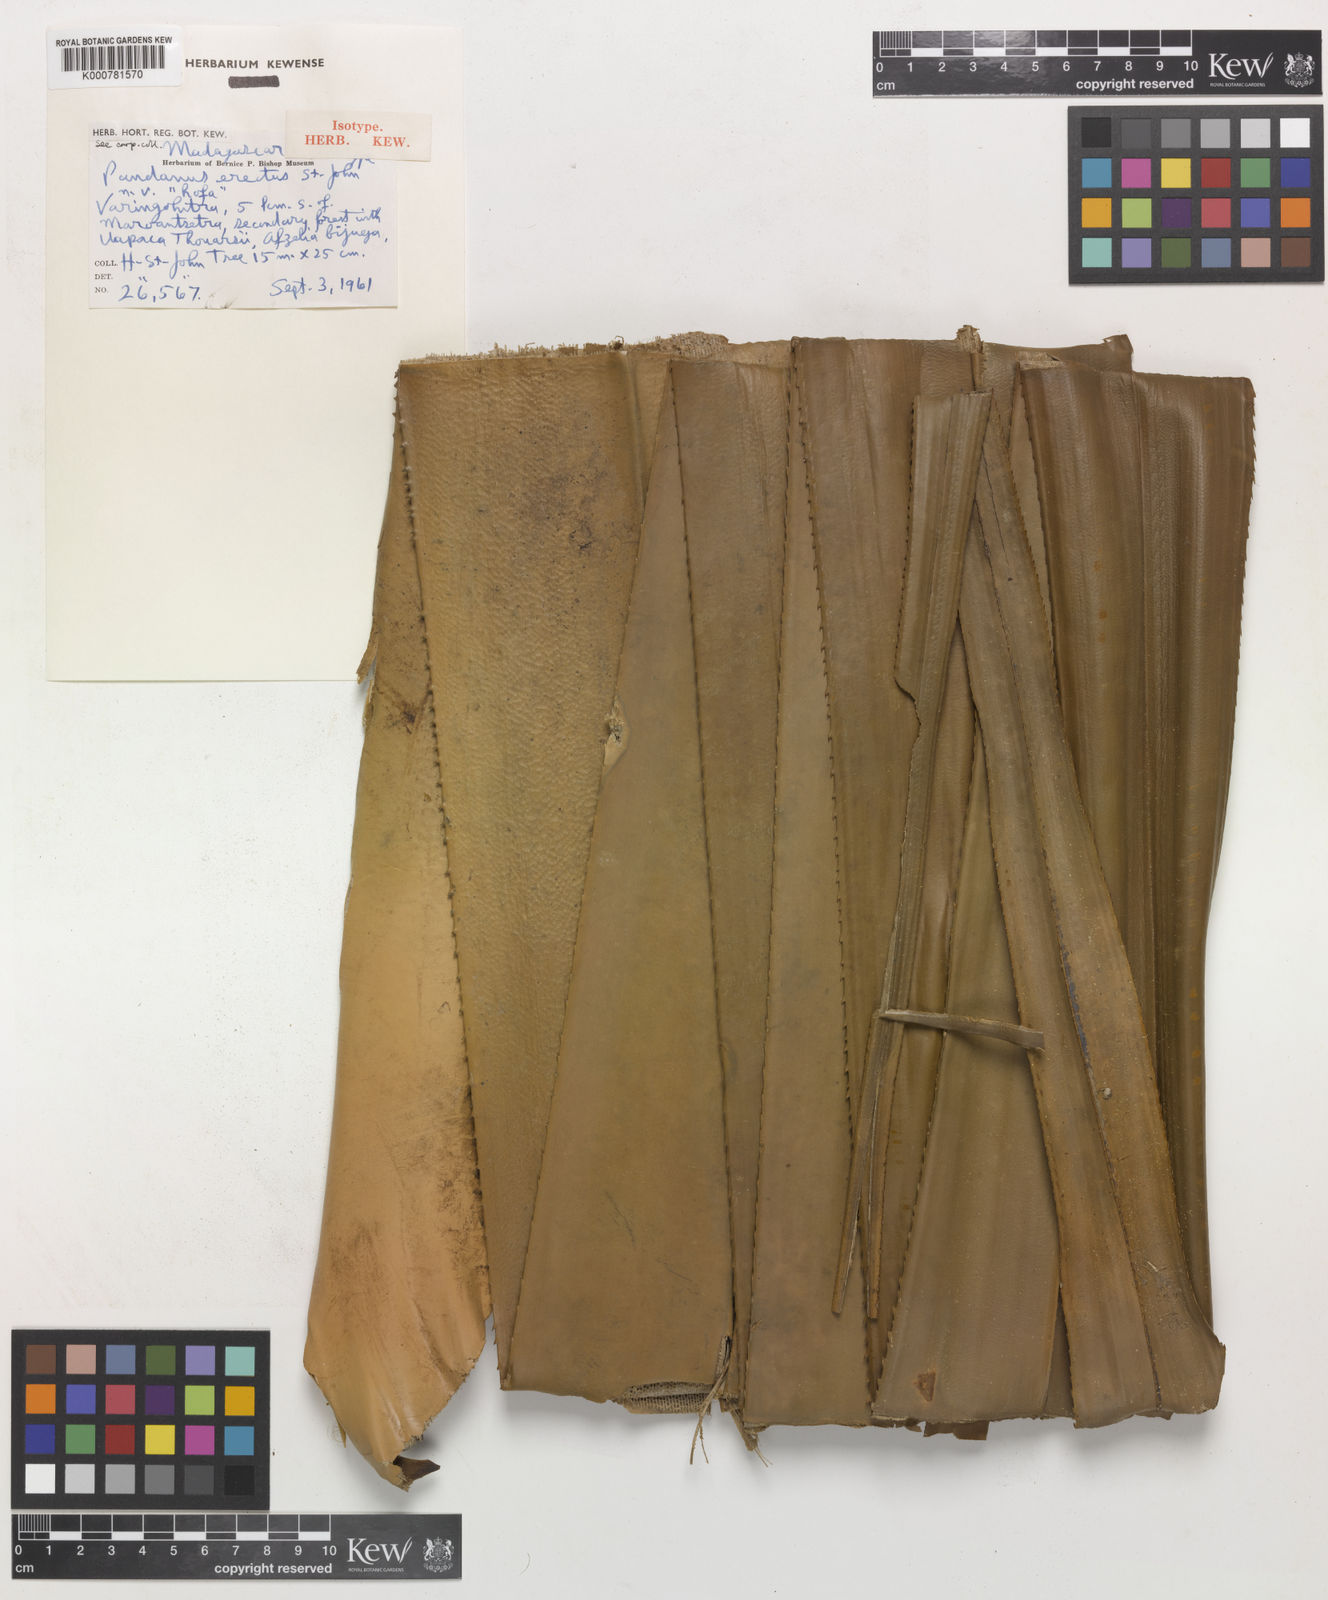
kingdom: Plantae
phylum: Tracheophyta
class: Liliopsida
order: Pandanales
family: Pandanaceae
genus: Pandanus
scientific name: Pandanus concretus
